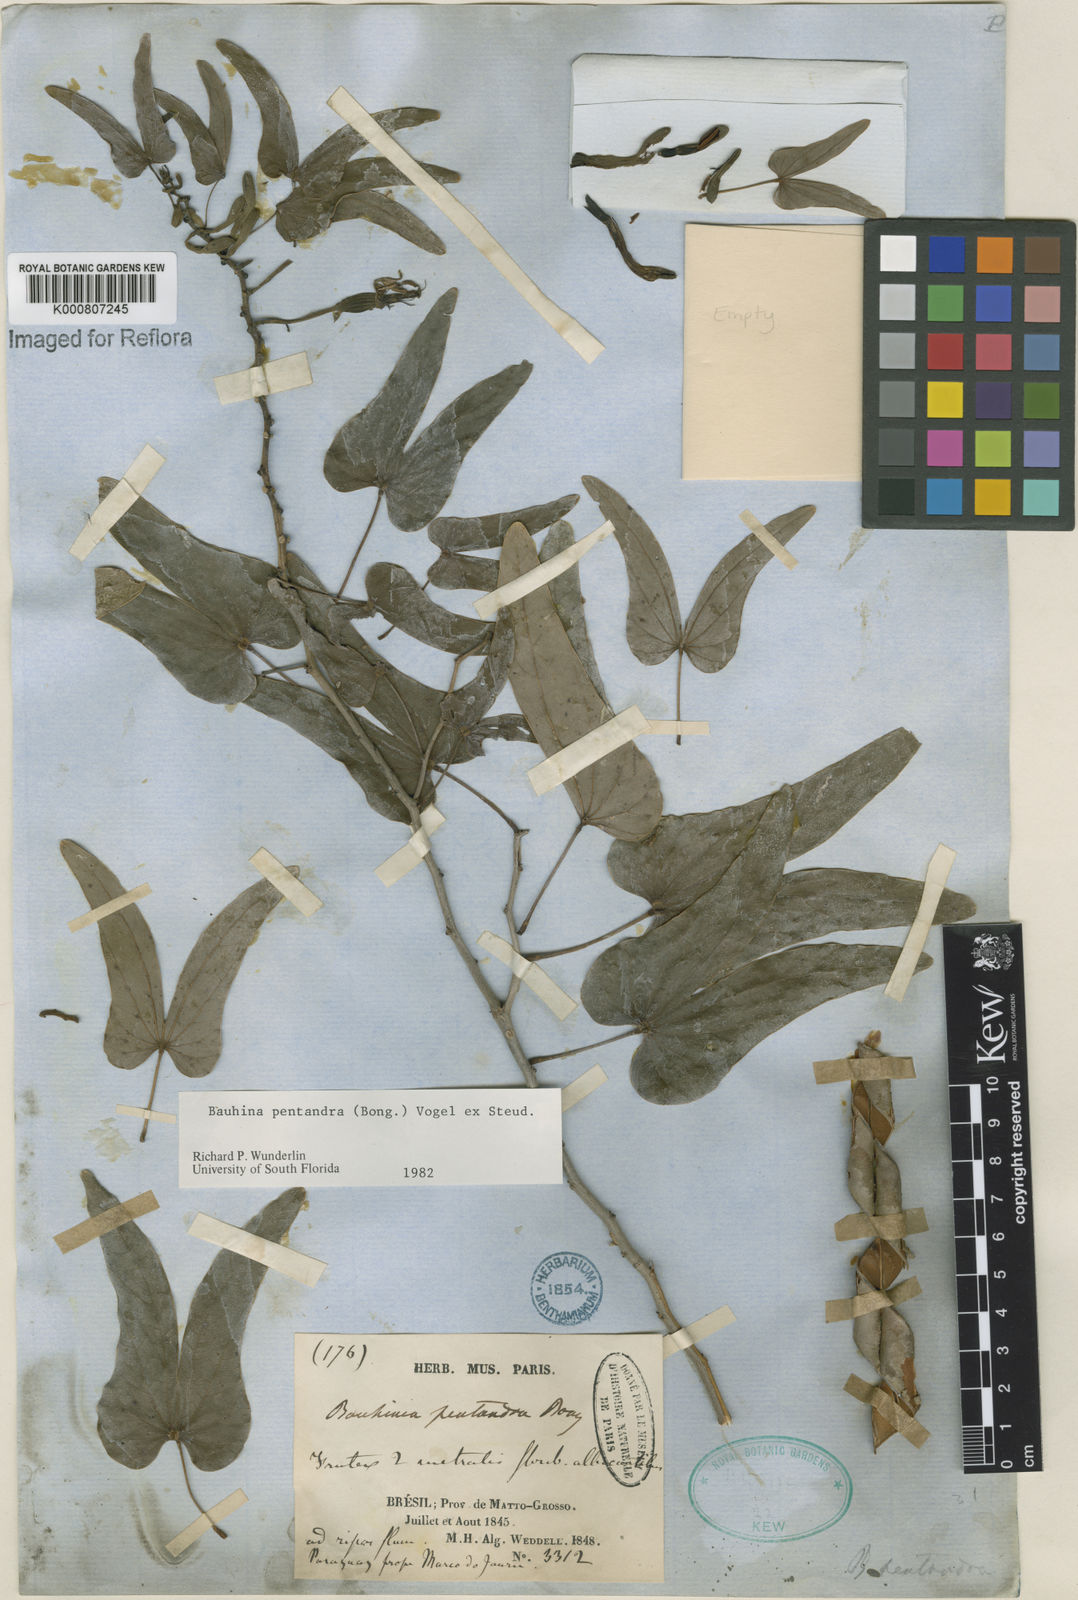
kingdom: Plantae
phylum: Tracheophyta
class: Magnoliopsida
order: Fabales
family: Fabaceae
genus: Bauhinia
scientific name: Bauhinia
